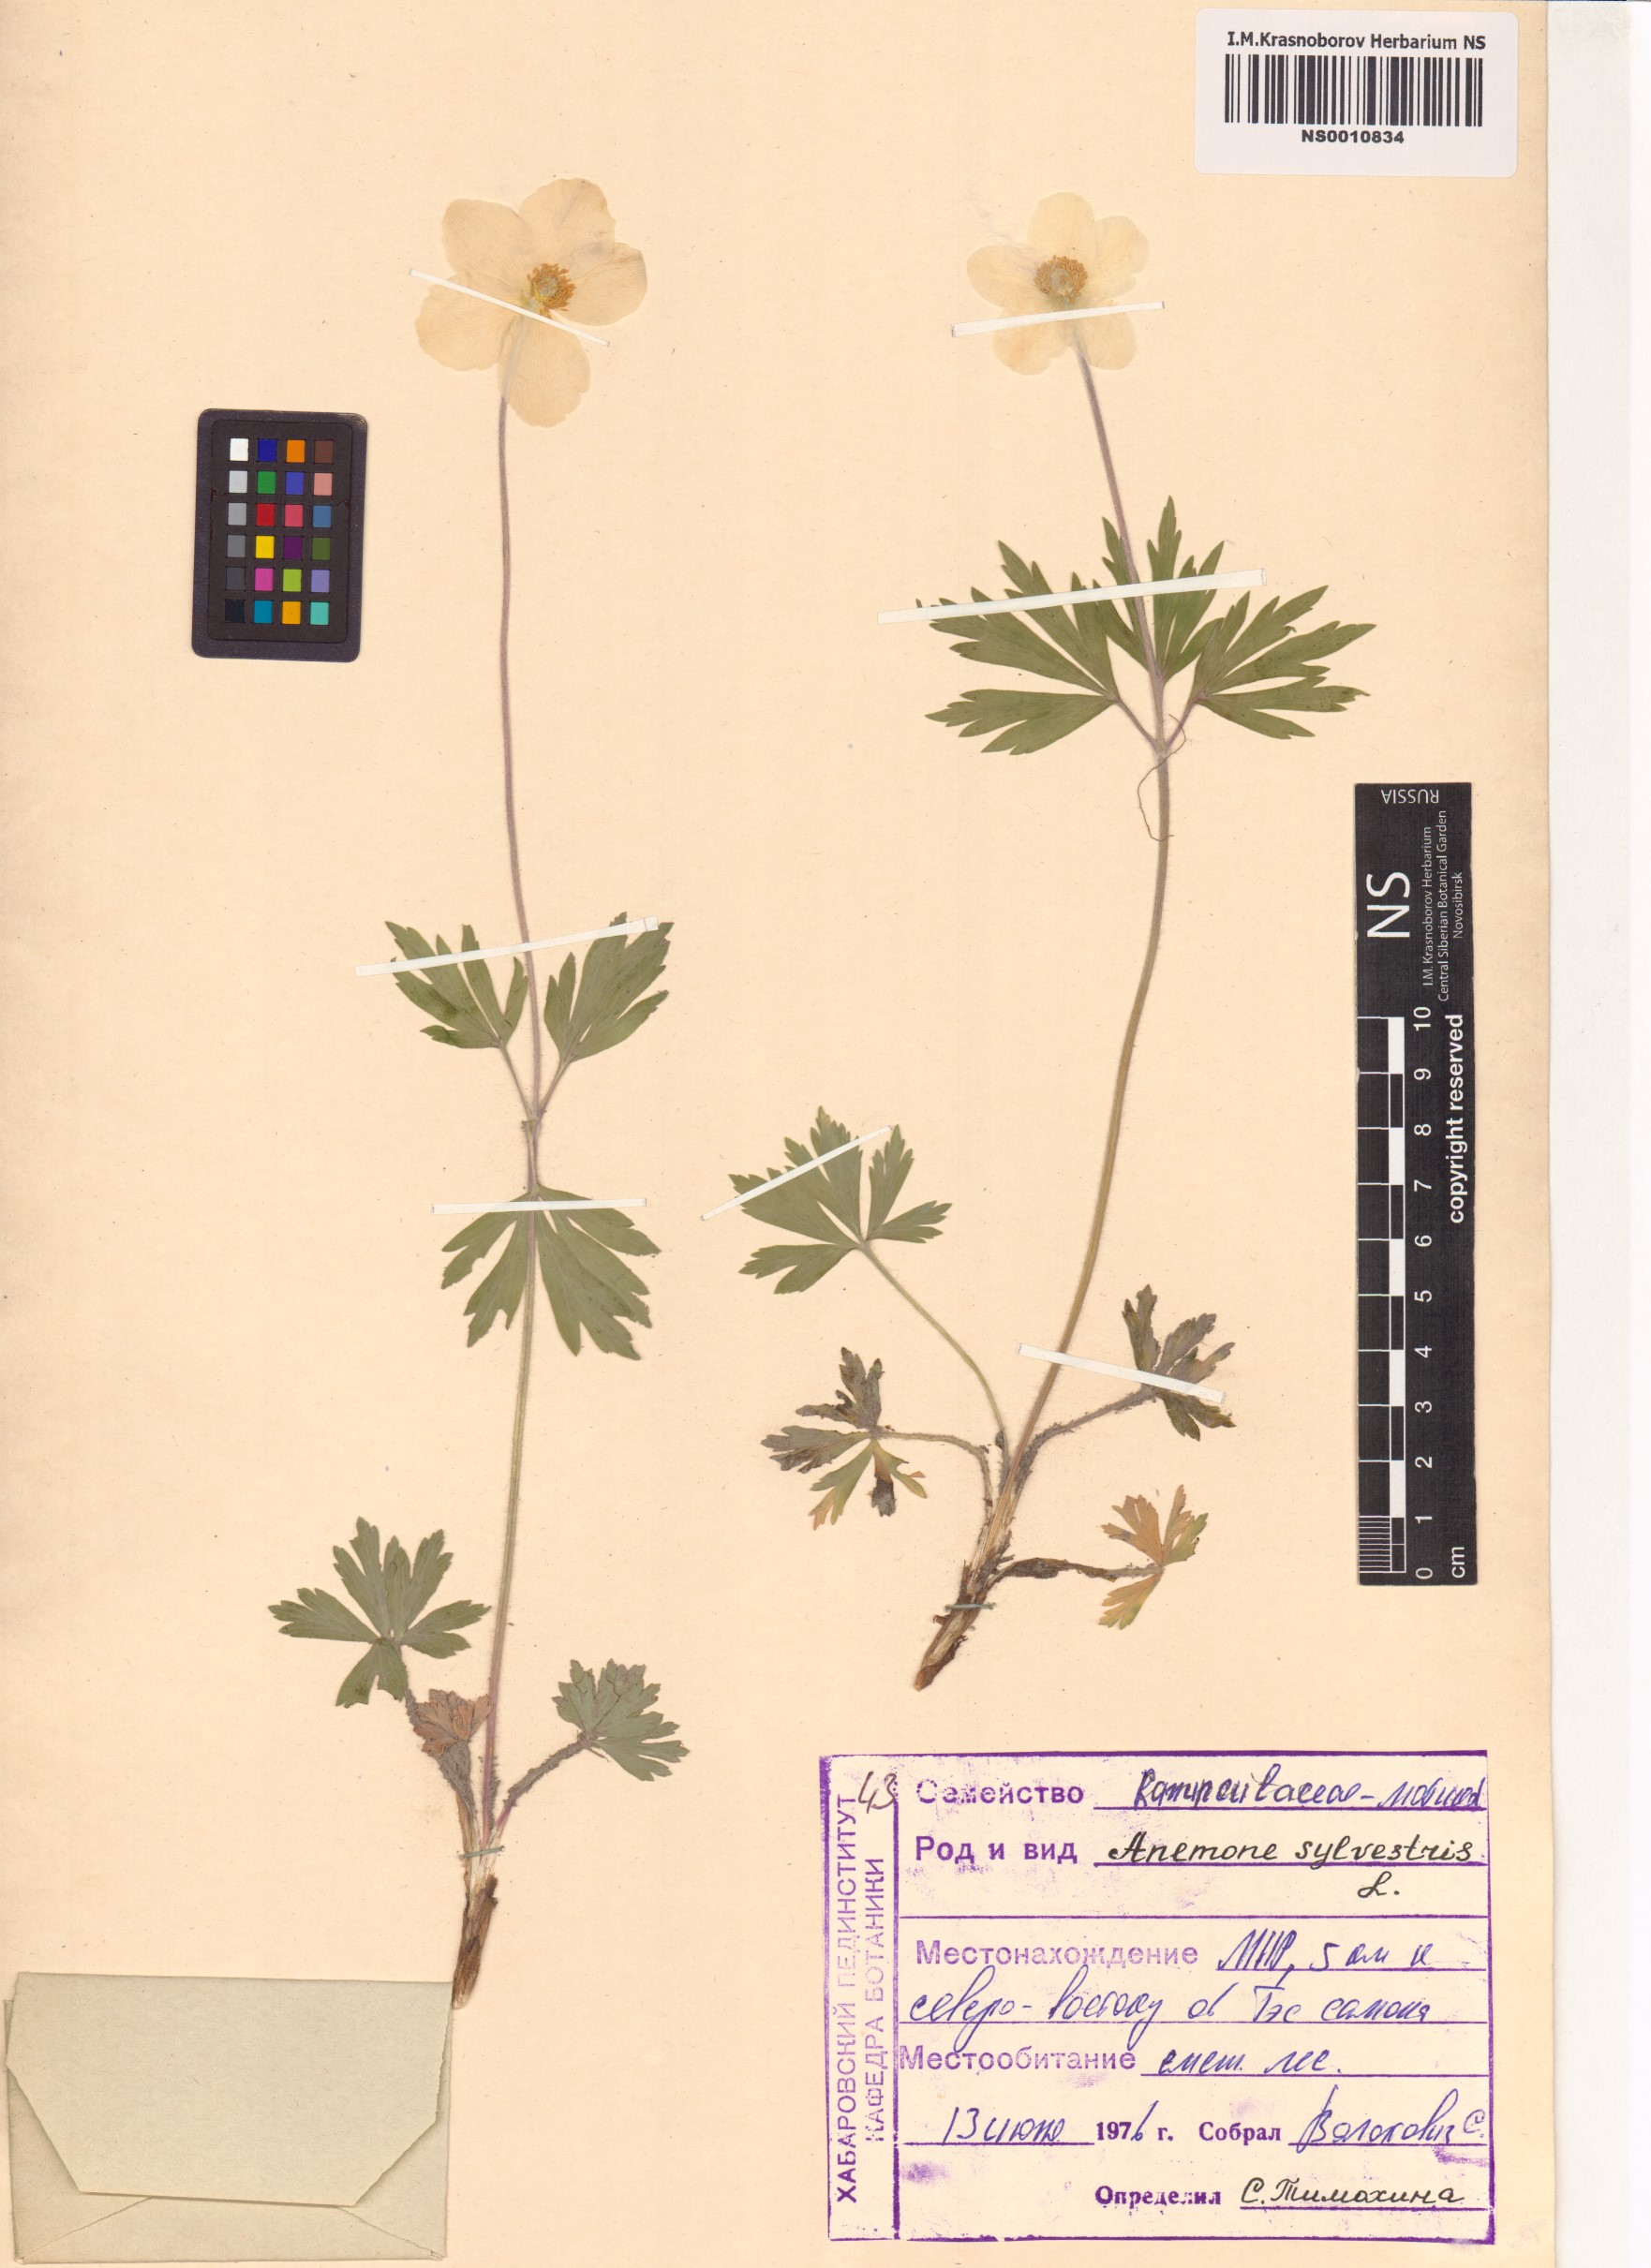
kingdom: Plantae
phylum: Tracheophyta
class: Magnoliopsida
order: Ranunculales
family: Ranunculaceae
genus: Anemone
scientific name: Anemone sylvestris
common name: Snowdrop anemone
